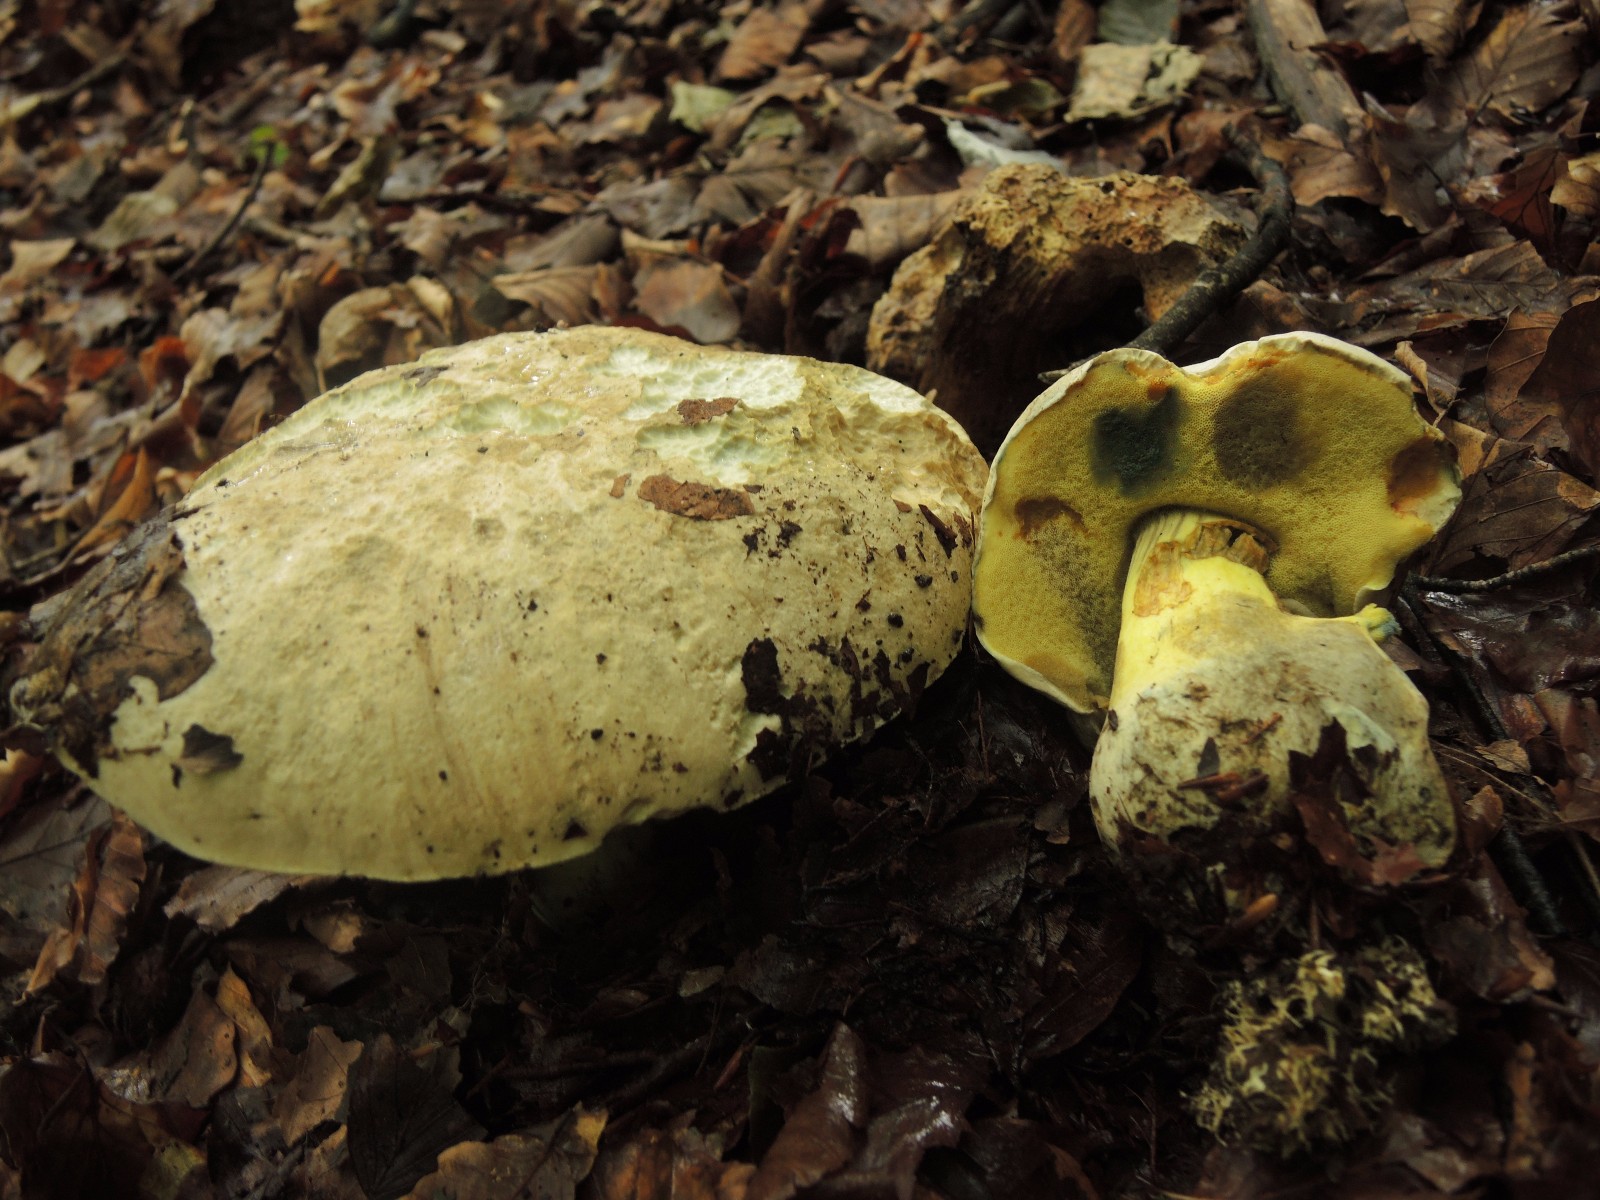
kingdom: Fungi
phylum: Basidiomycota
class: Agaricomycetes
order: Boletales
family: Boletaceae
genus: Caloboletus
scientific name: Caloboletus radicans
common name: rod-rørhat
